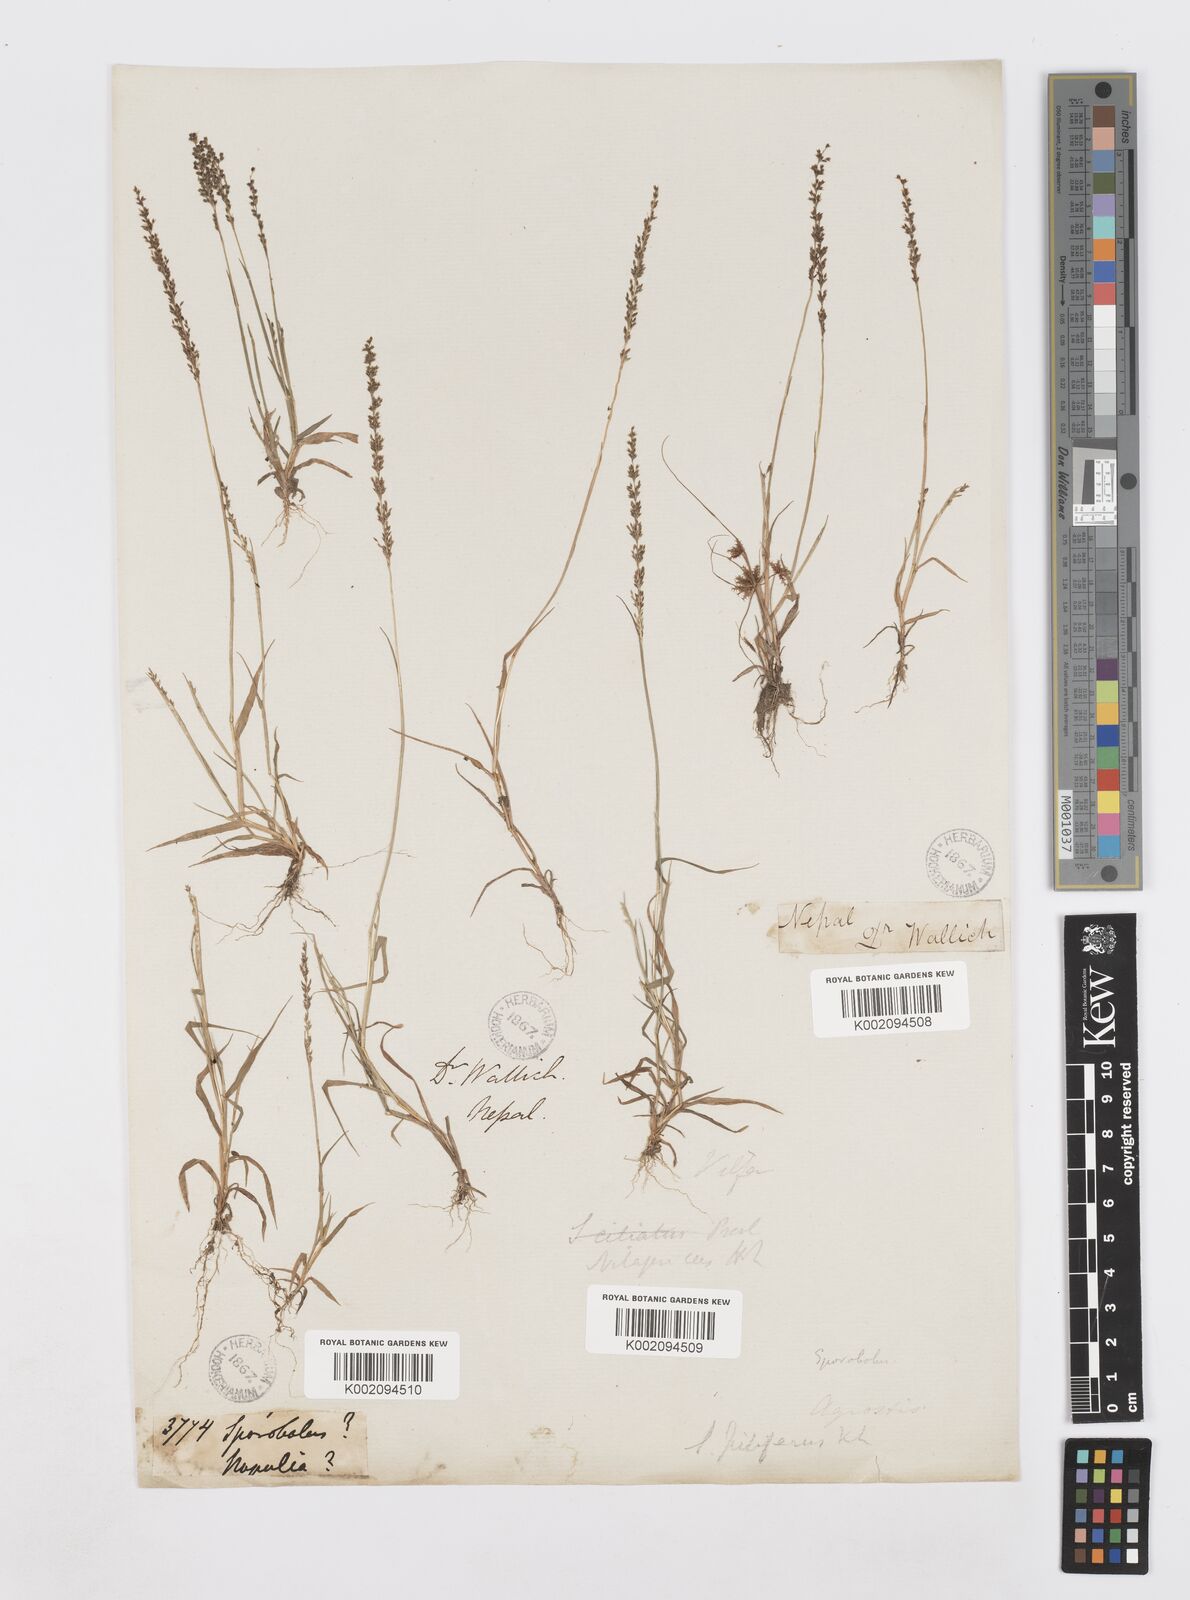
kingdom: Plantae
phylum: Tracheophyta
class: Liliopsida
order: Poales
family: Poaceae
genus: Sporobolus
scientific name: Sporobolus pilifer
